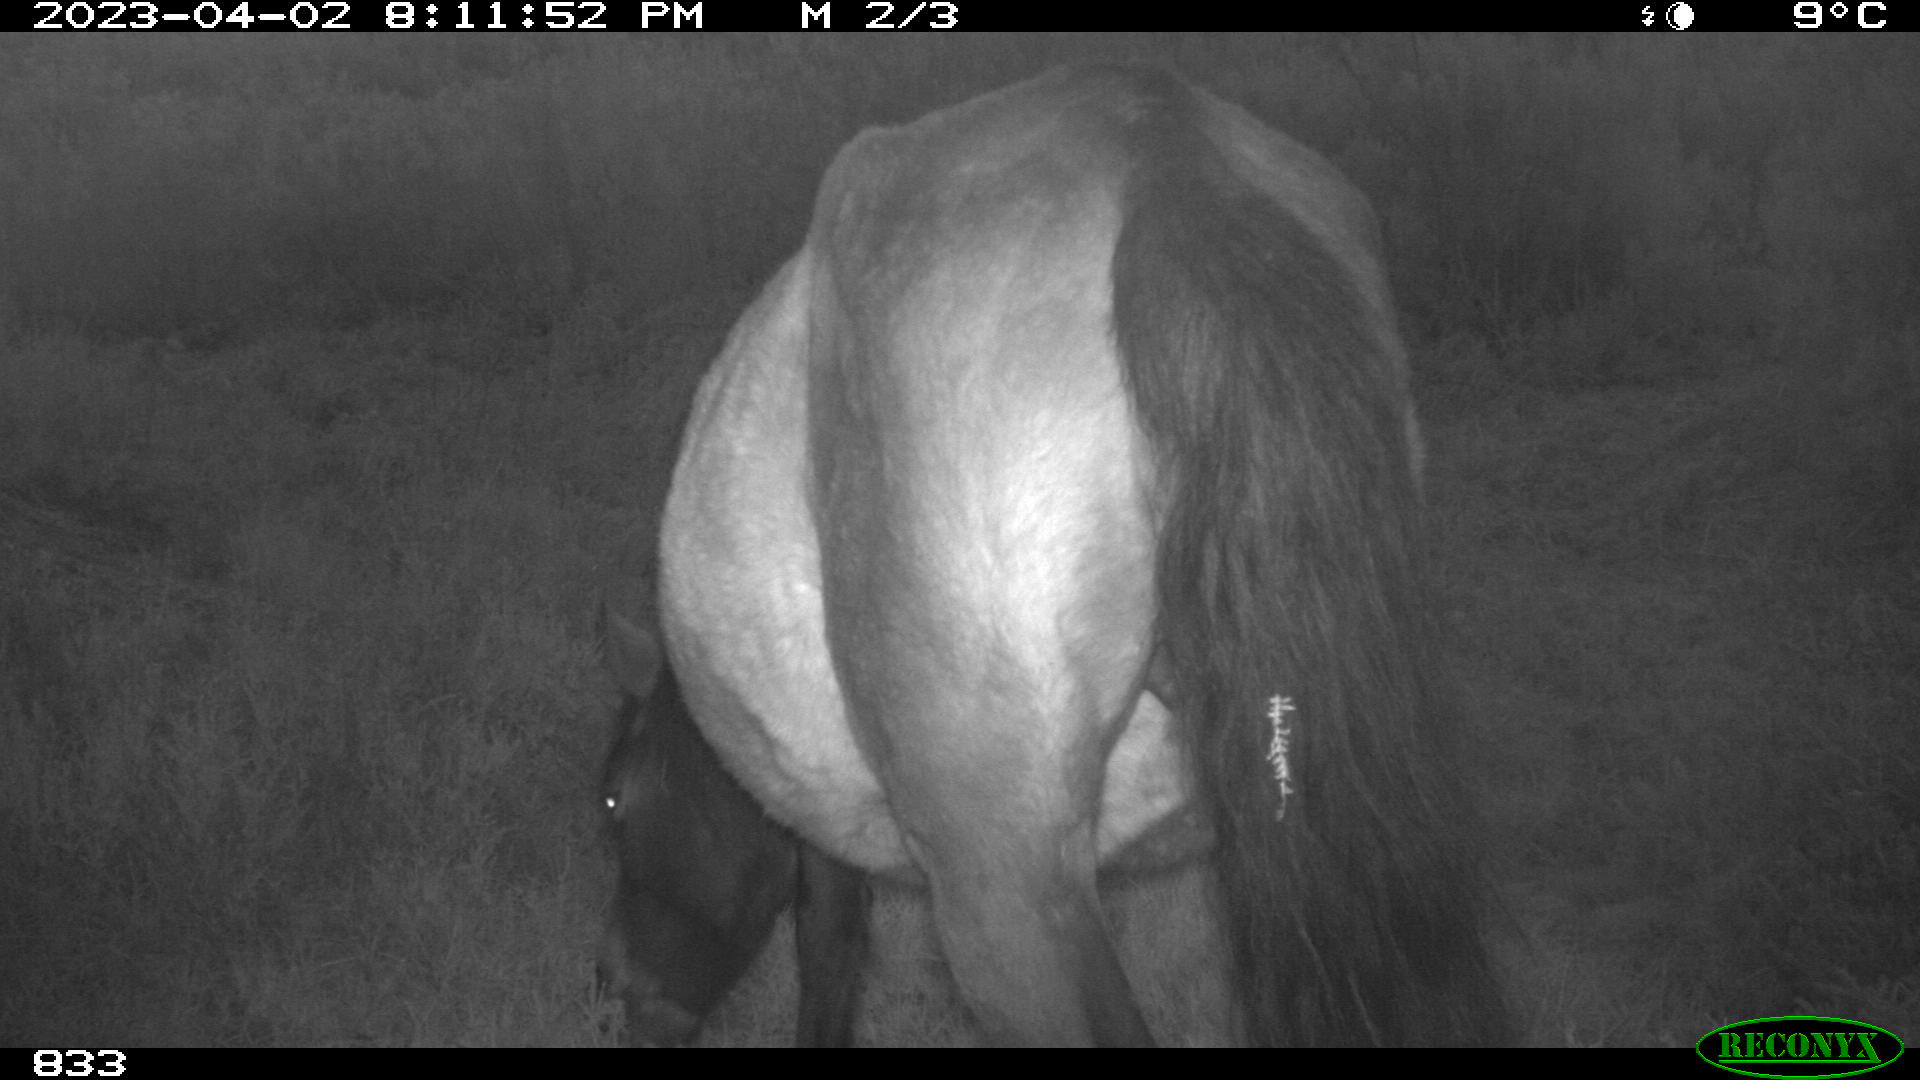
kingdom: Animalia
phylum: Chordata
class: Mammalia
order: Perissodactyla
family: Equidae
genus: Equus
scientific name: Equus caballus
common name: Horse
